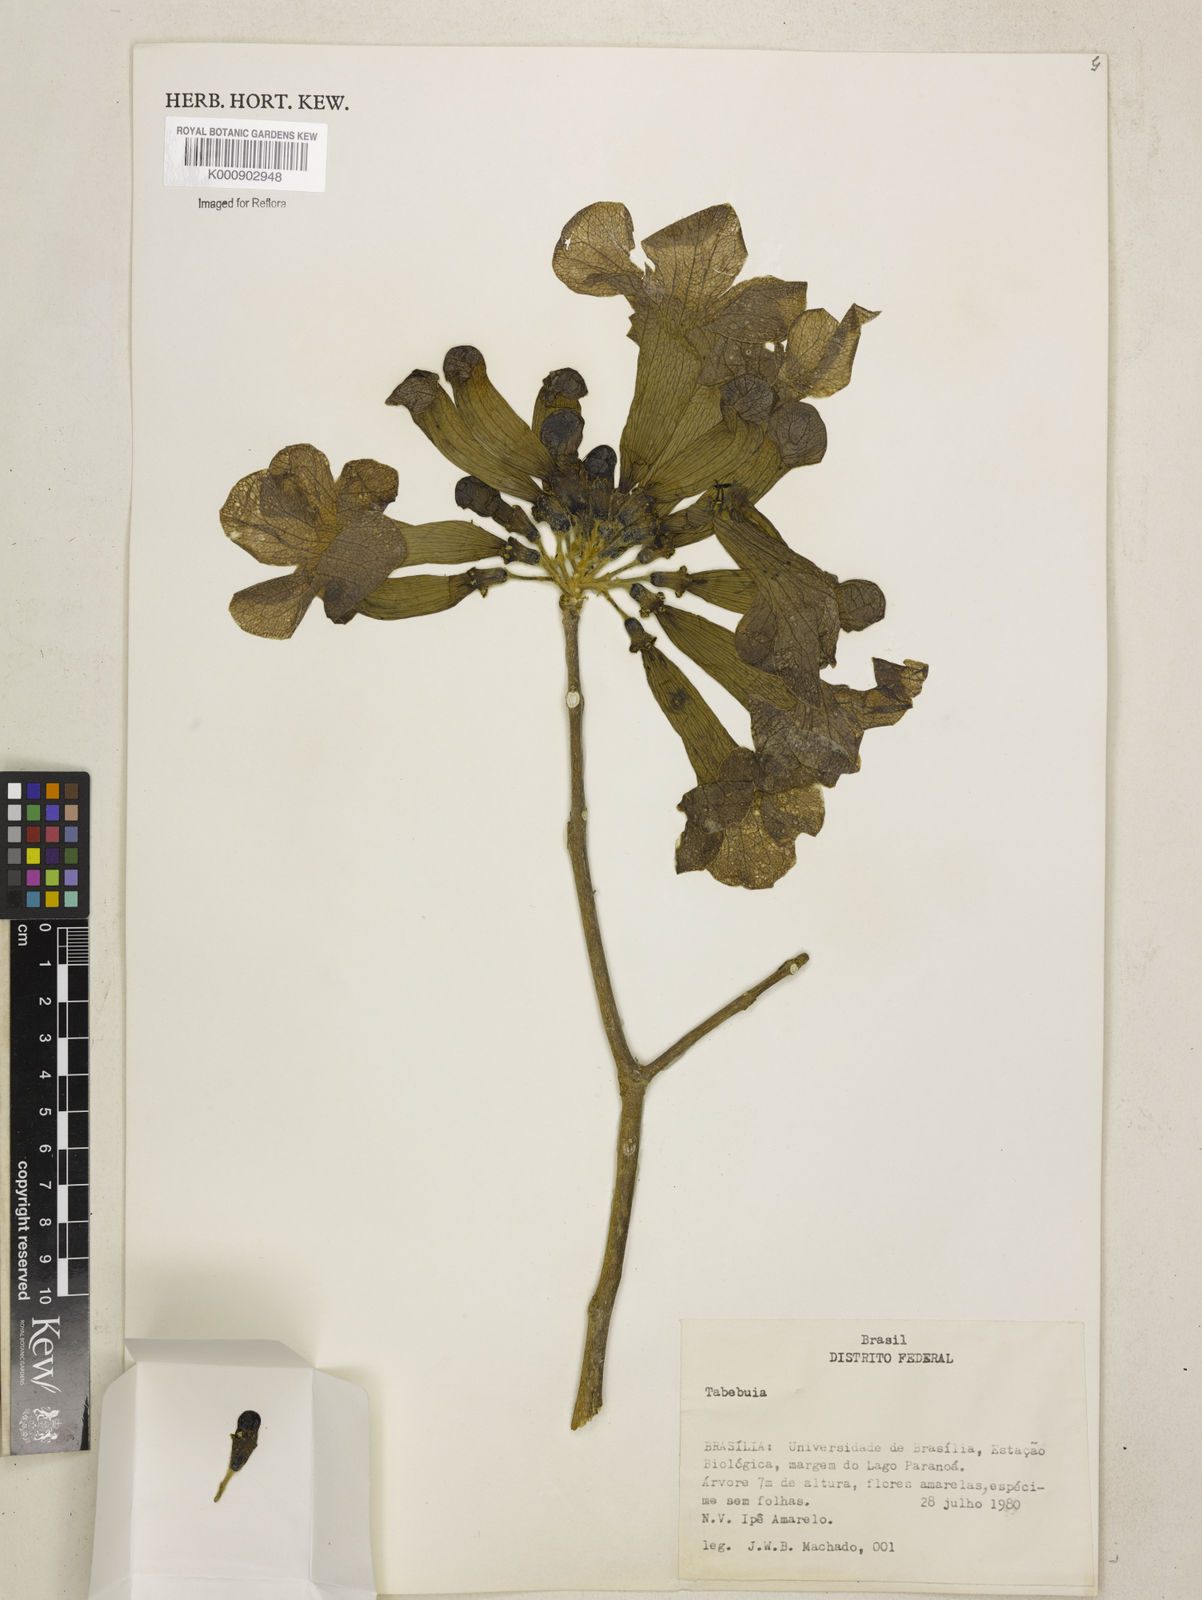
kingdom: Plantae
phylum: Tracheophyta
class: Magnoliopsida
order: Lamiales
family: Bignoniaceae
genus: Tabebuia
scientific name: Tabebuia
